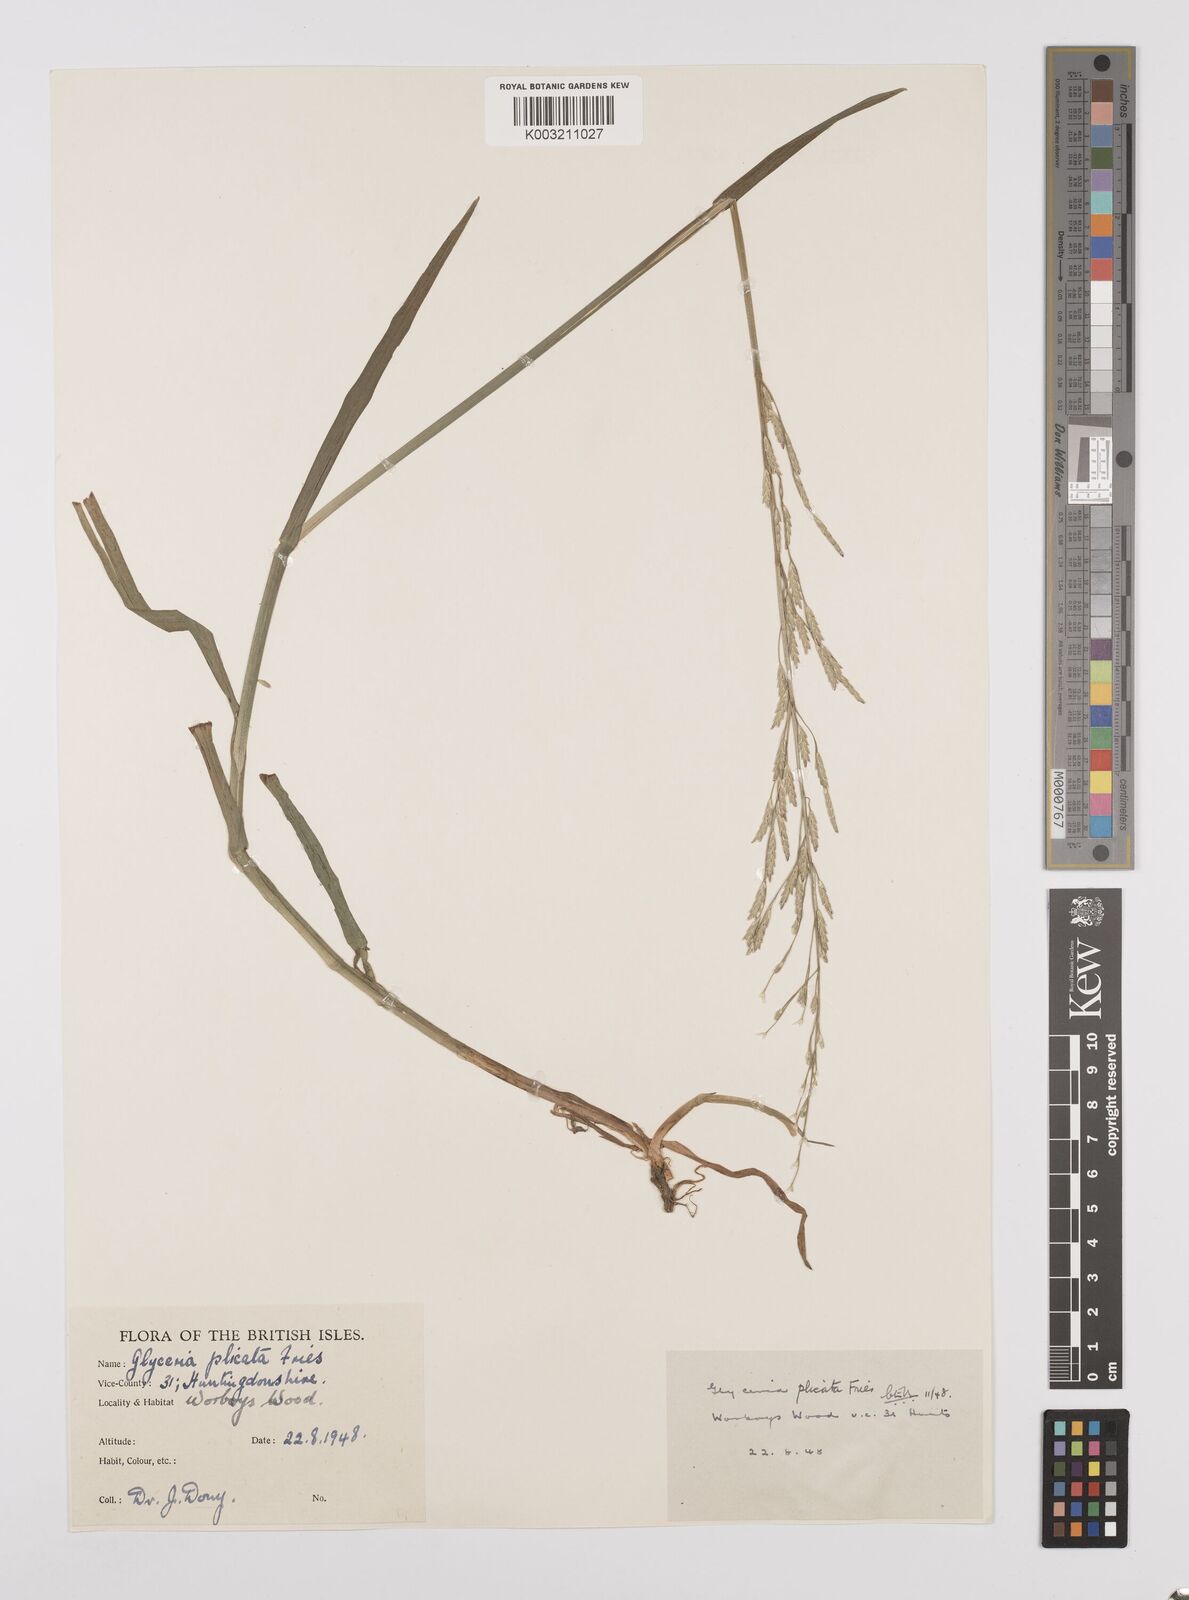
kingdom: Plantae
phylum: Tracheophyta
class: Liliopsida
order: Poales
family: Poaceae
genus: Glyceria
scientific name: Glyceria notata
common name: Plicate sweet-grass
